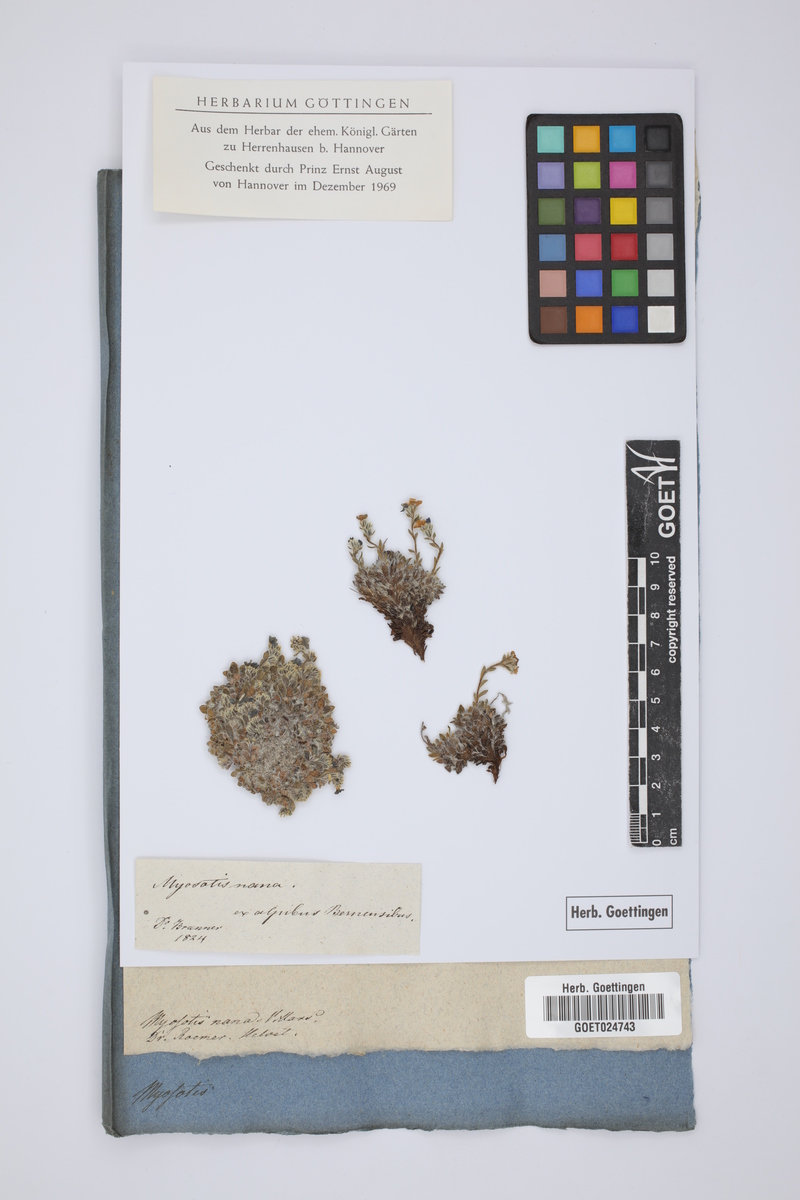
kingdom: Plantae
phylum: Tracheophyta
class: Magnoliopsida
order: Boraginales
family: Boraginaceae
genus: Eritrichium
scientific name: Eritrichium nanum
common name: King-of-the-alps
